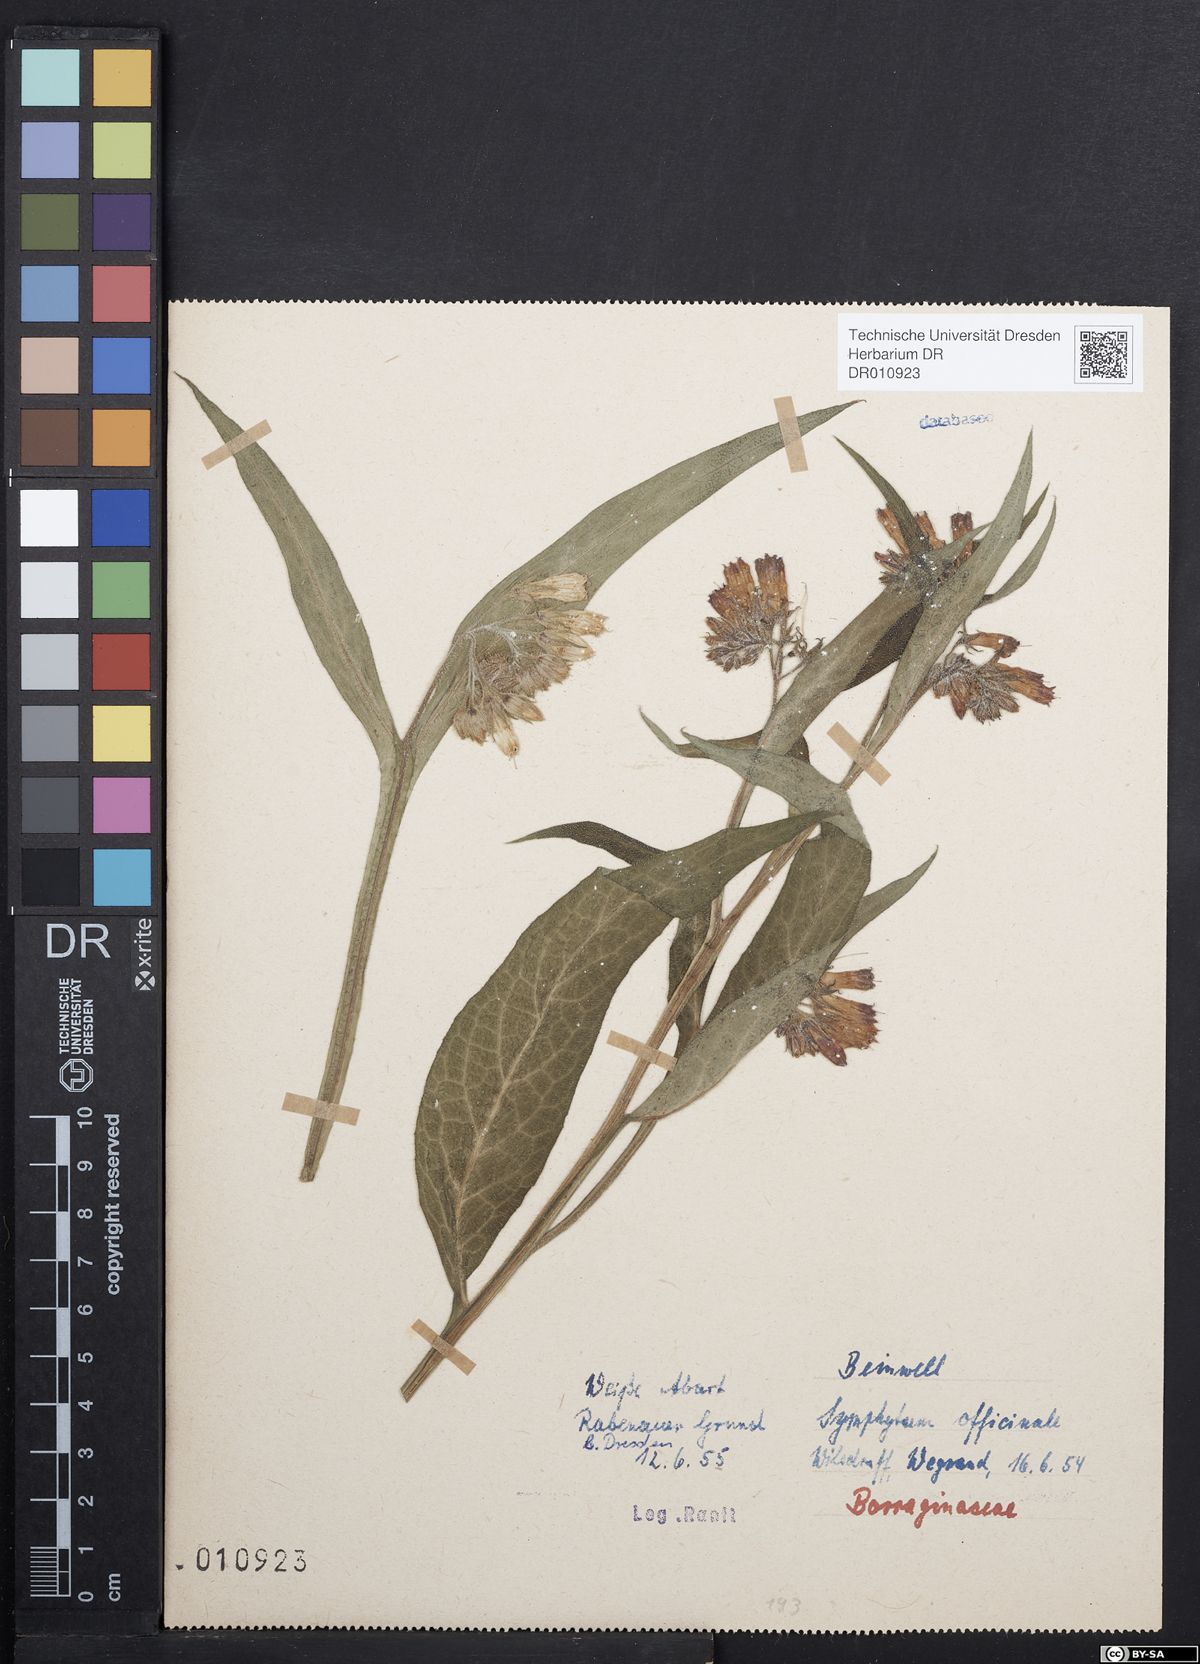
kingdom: Plantae
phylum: Tracheophyta
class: Magnoliopsida
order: Boraginales
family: Boraginaceae
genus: Symphytum
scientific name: Symphytum officinale
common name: Common comfrey
